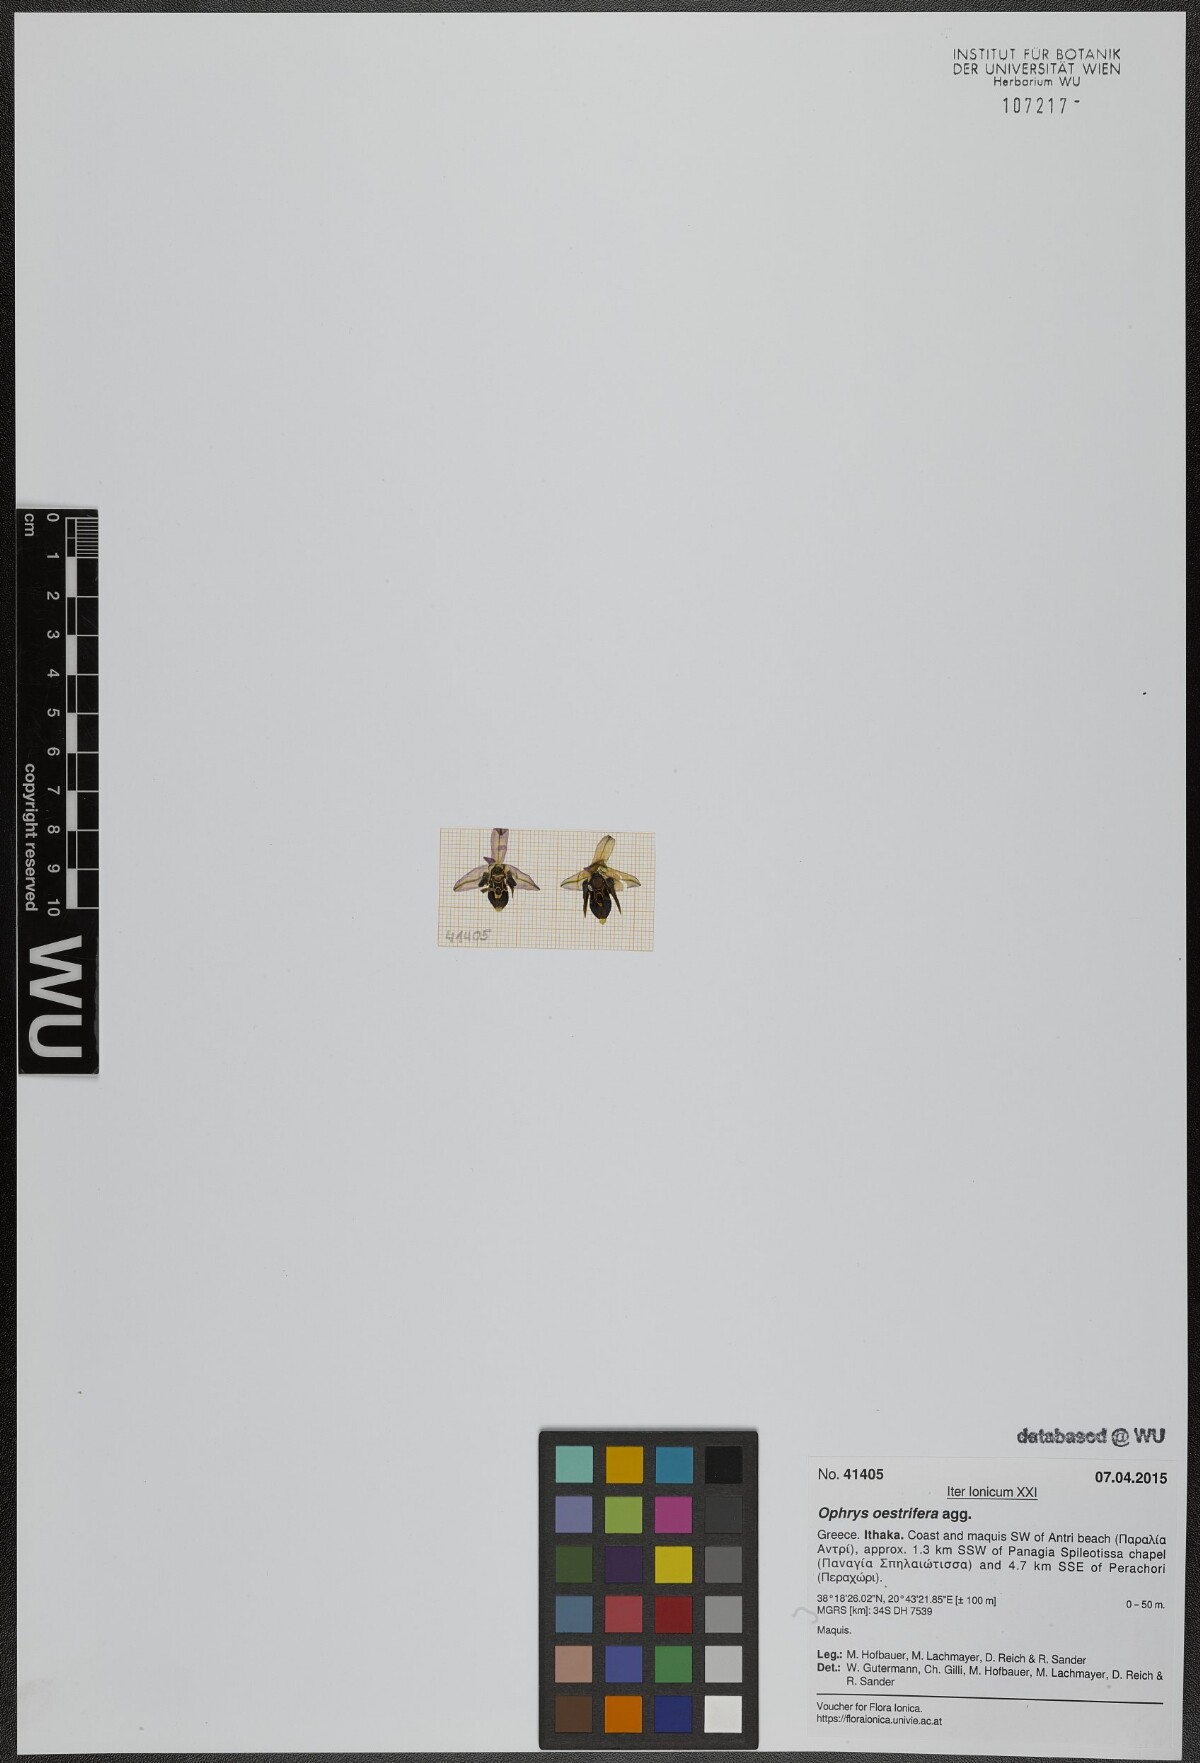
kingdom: Plantae
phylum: Tracheophyta
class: Liliopsida
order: Asparagales
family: Orchidaceae
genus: Ophrys
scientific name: Ophrys scolopax
